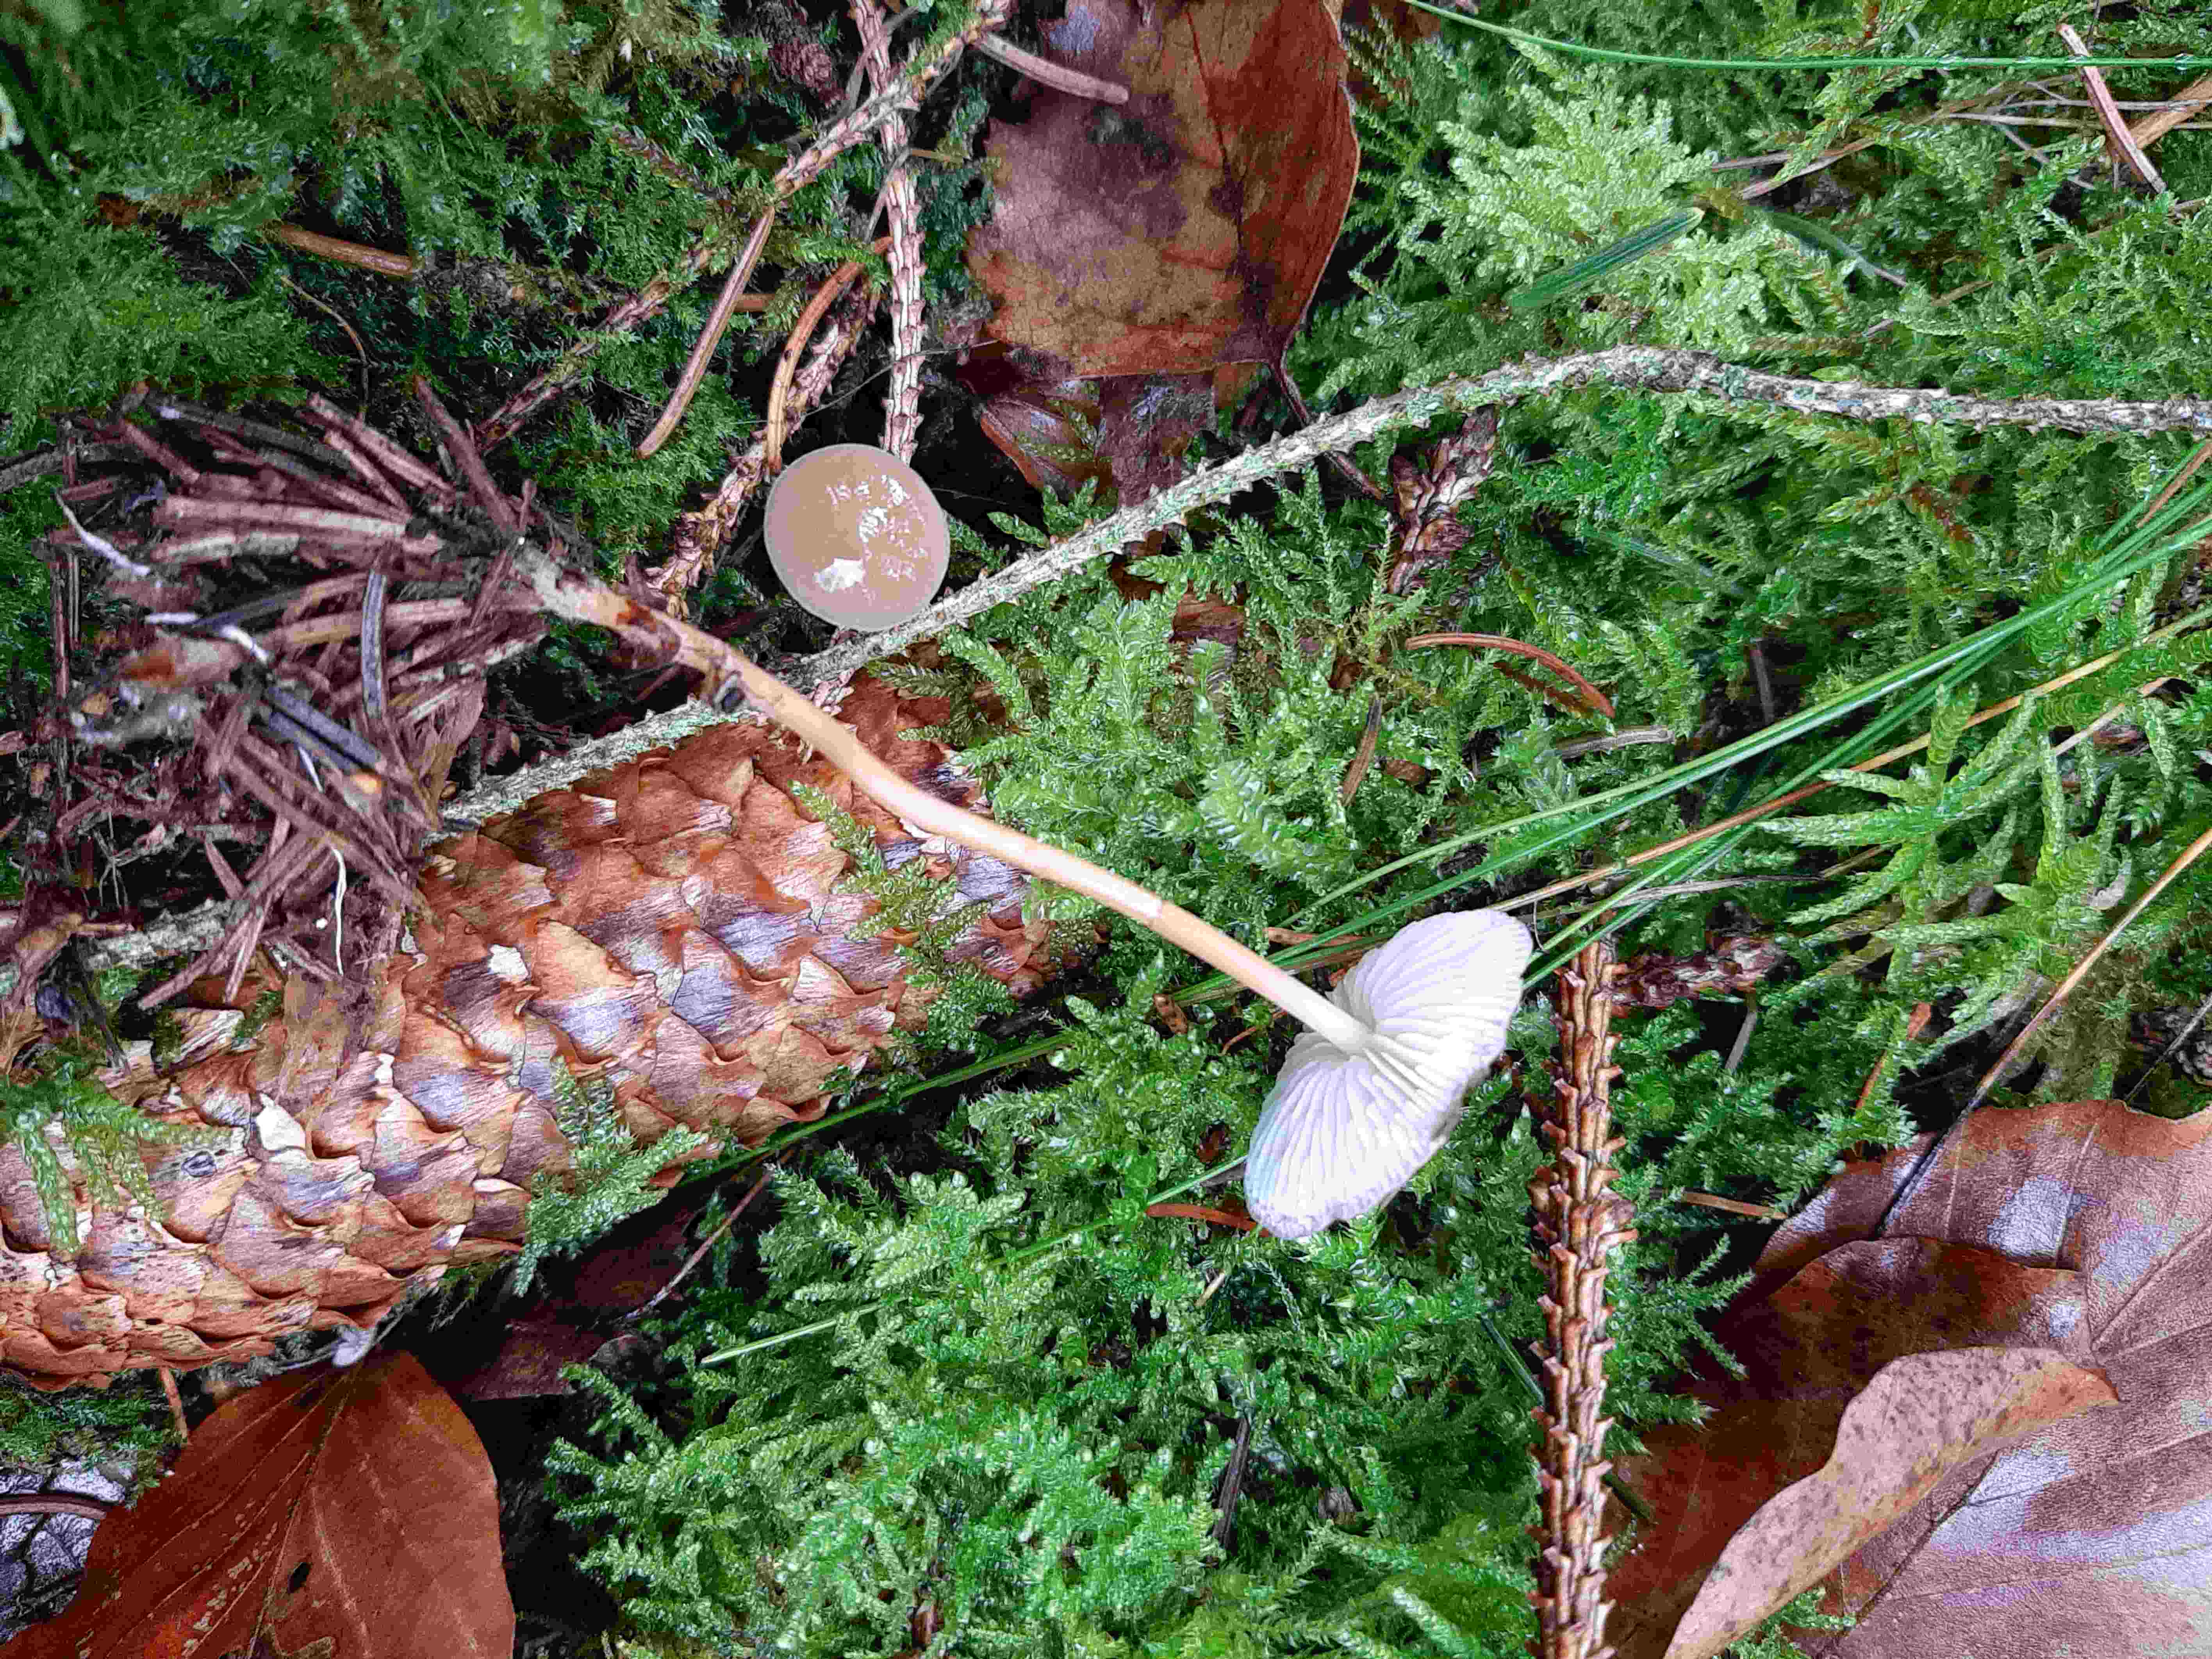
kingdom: Fungi
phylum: Basidiomycota
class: Agaricomycetes
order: Agaricales
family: Physalacriaceae
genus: Strobilurus
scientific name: Strobilurus esculentus
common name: gran-koglehat
